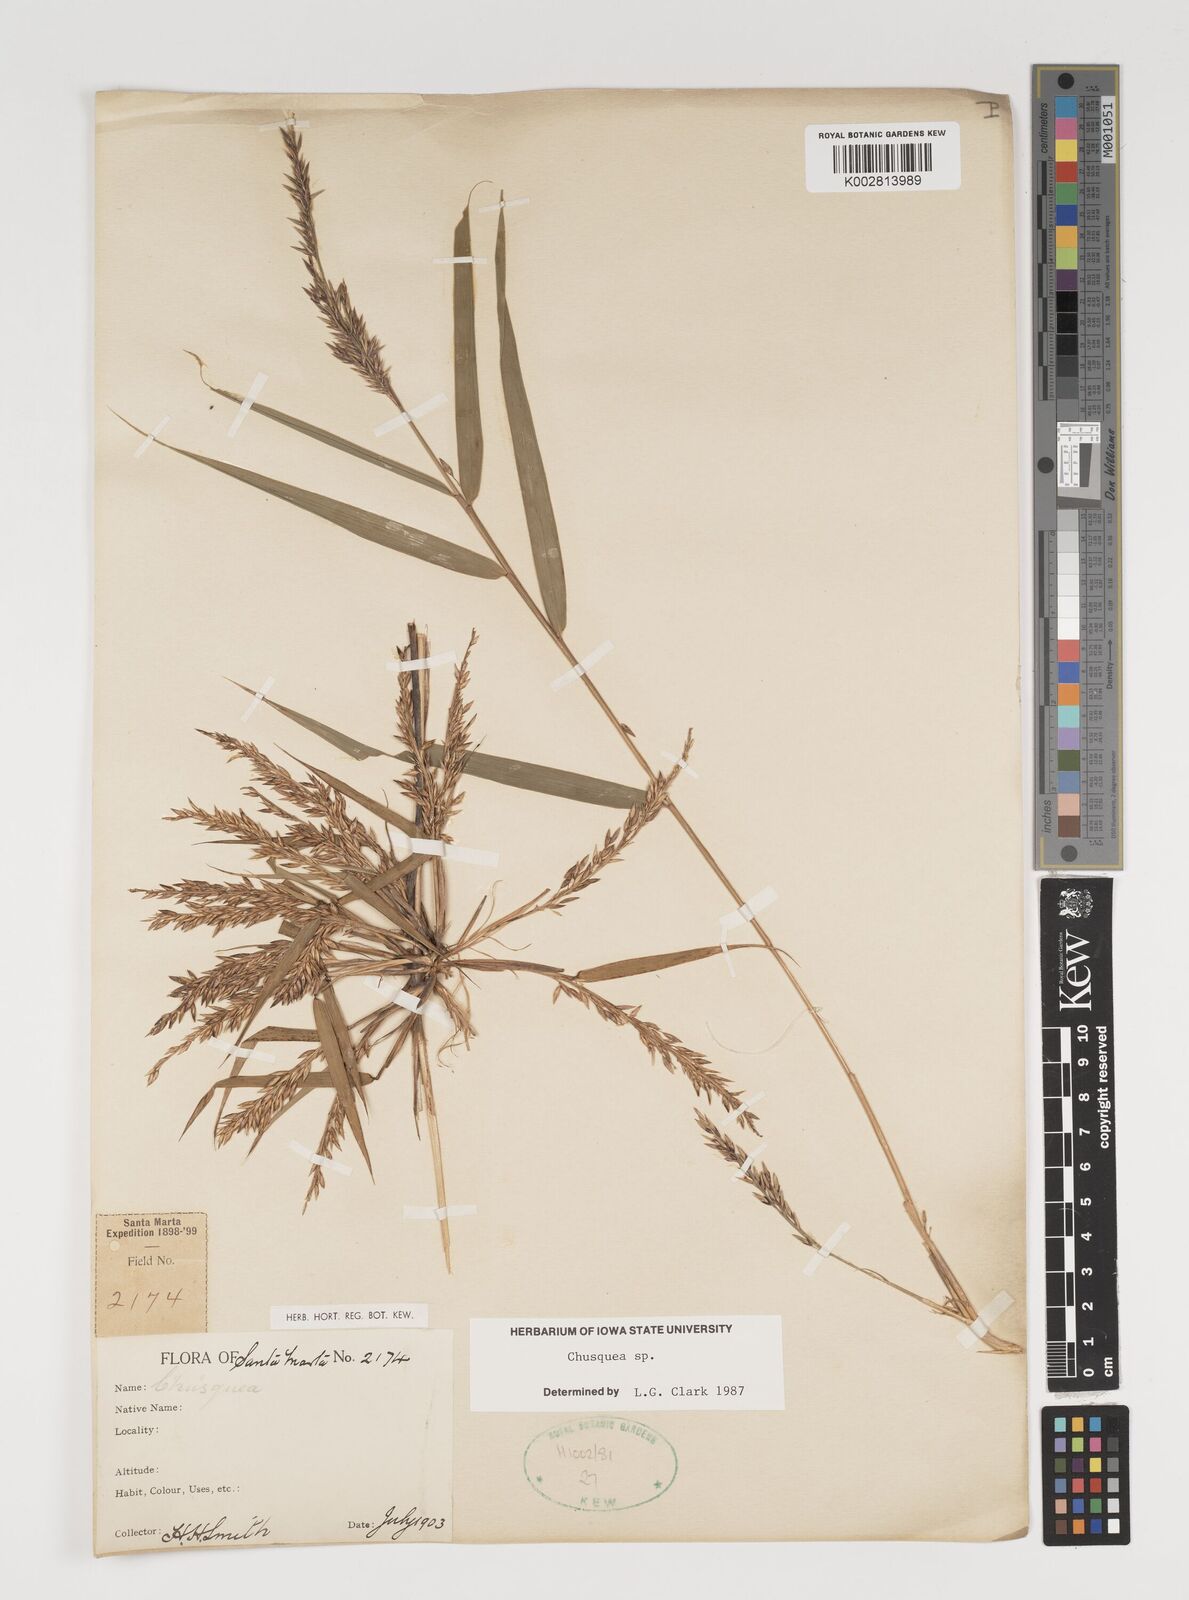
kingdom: Plantae
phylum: Tracheophyta
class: Liliopsida
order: Poales
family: Poaceae
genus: Chusquea
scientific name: Chusquea
